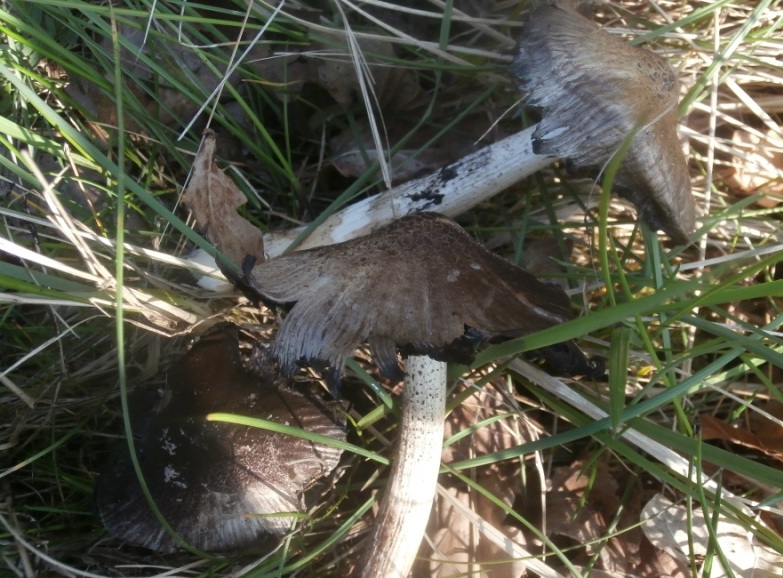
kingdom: Fungi
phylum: Basidiomycota
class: Agaricomycetes
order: Agaricales
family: Psathyrellaceae
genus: Coprinopsis
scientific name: Coprinopsis atramentaria
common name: almindelig blækhat
